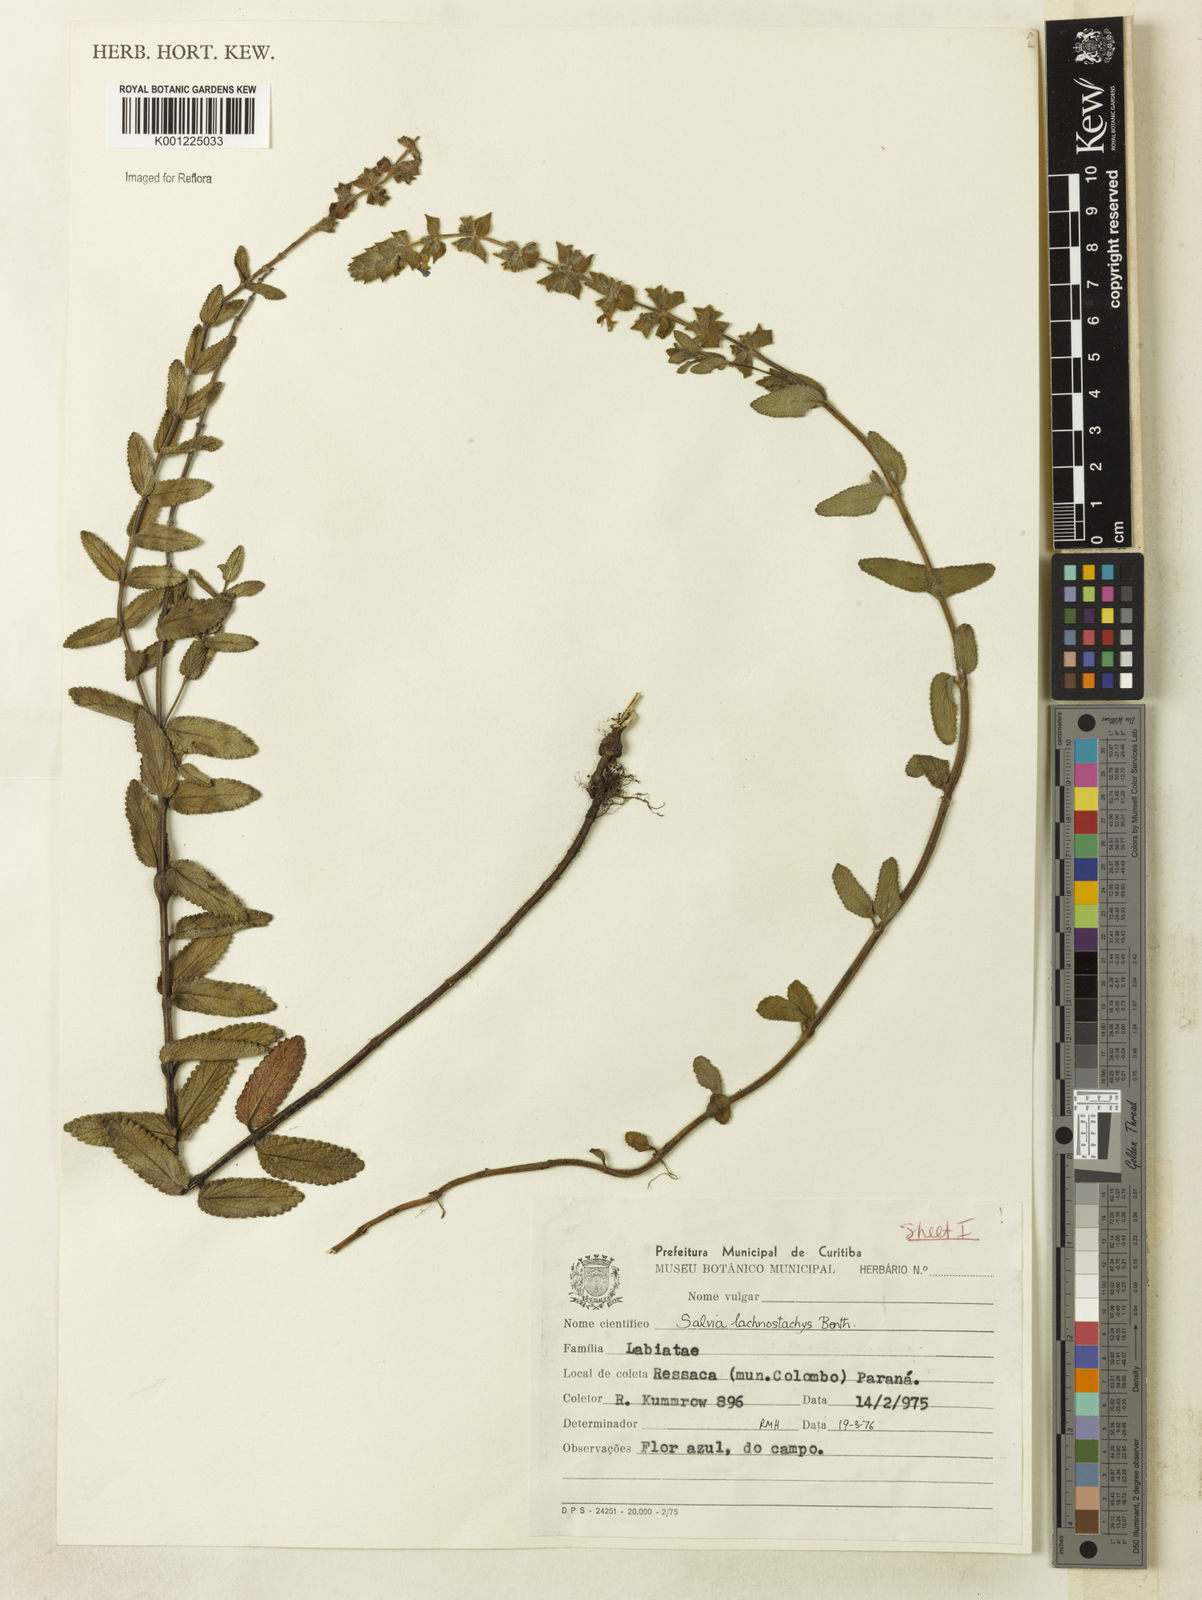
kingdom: Plantae
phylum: Tracheophyta
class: Magnoliopsida
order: Lamiales
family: Lamiaceae
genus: Salvia
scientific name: Salvia lachnostachys
